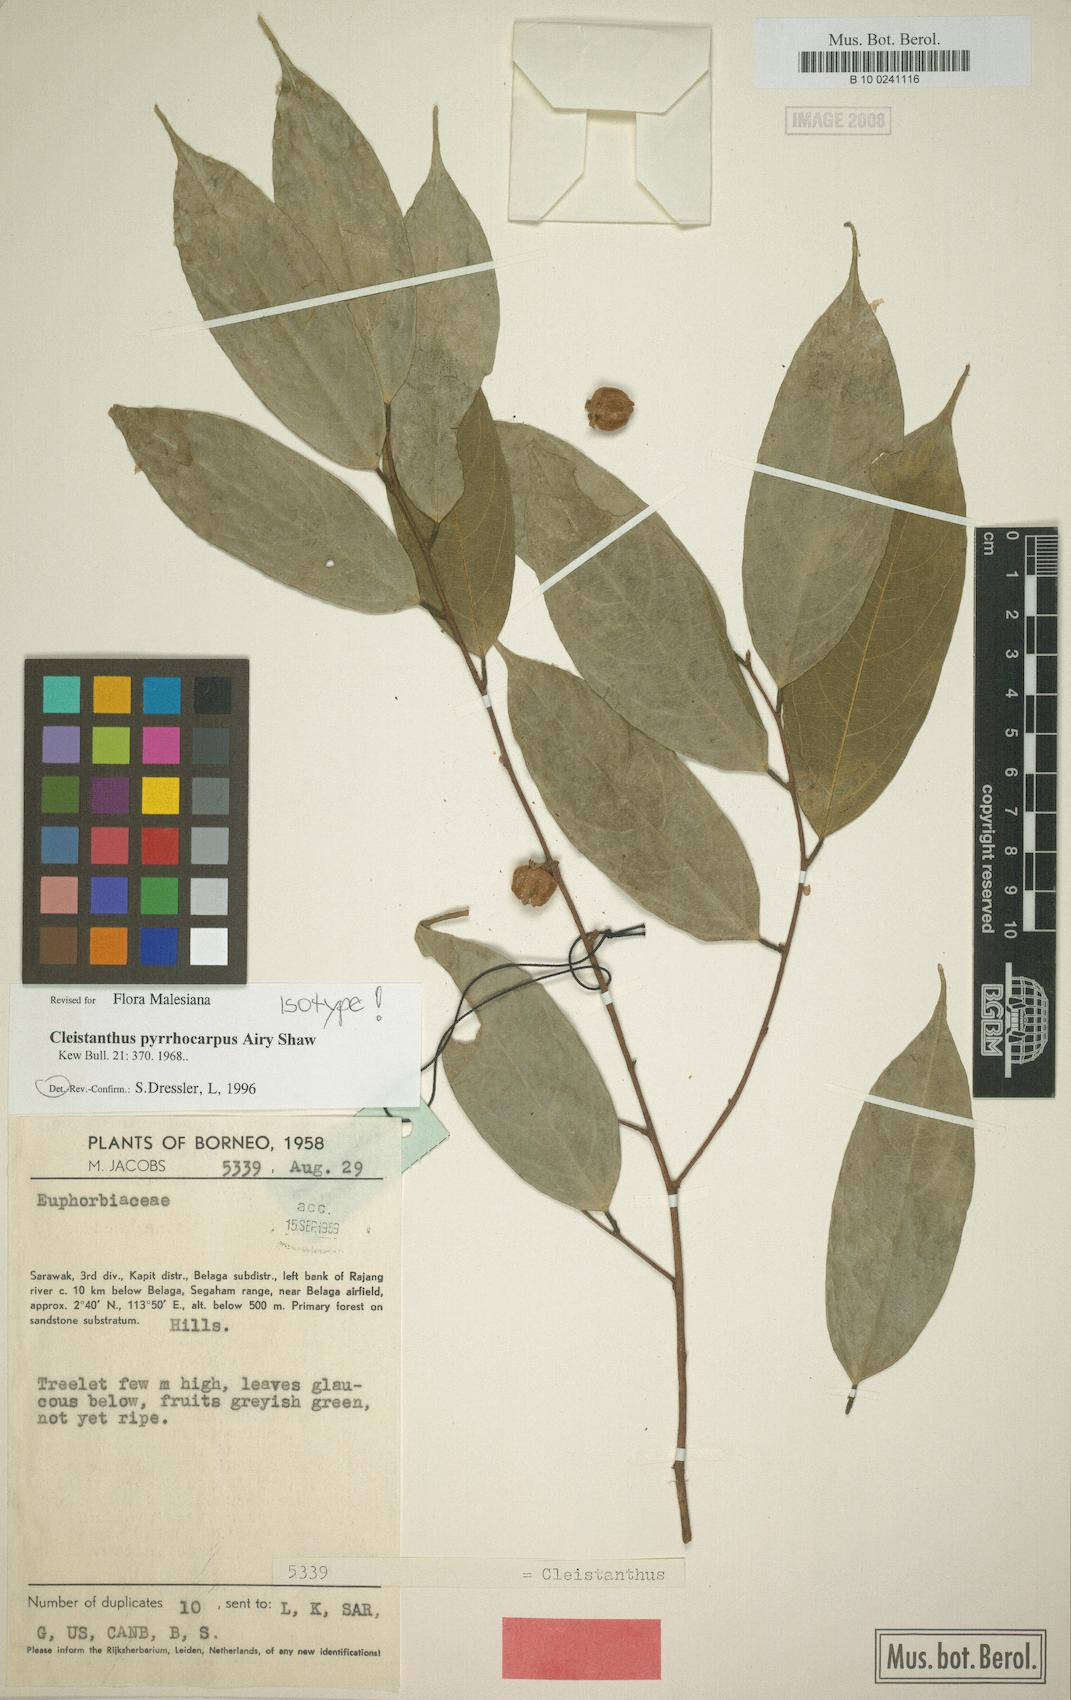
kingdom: Plantae
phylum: Tracheophyta
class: Magnoliopsida
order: Malpighiales
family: Phyllanthaceae
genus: Cleistanthus
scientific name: Cleistanthus pyrrhocarpus
